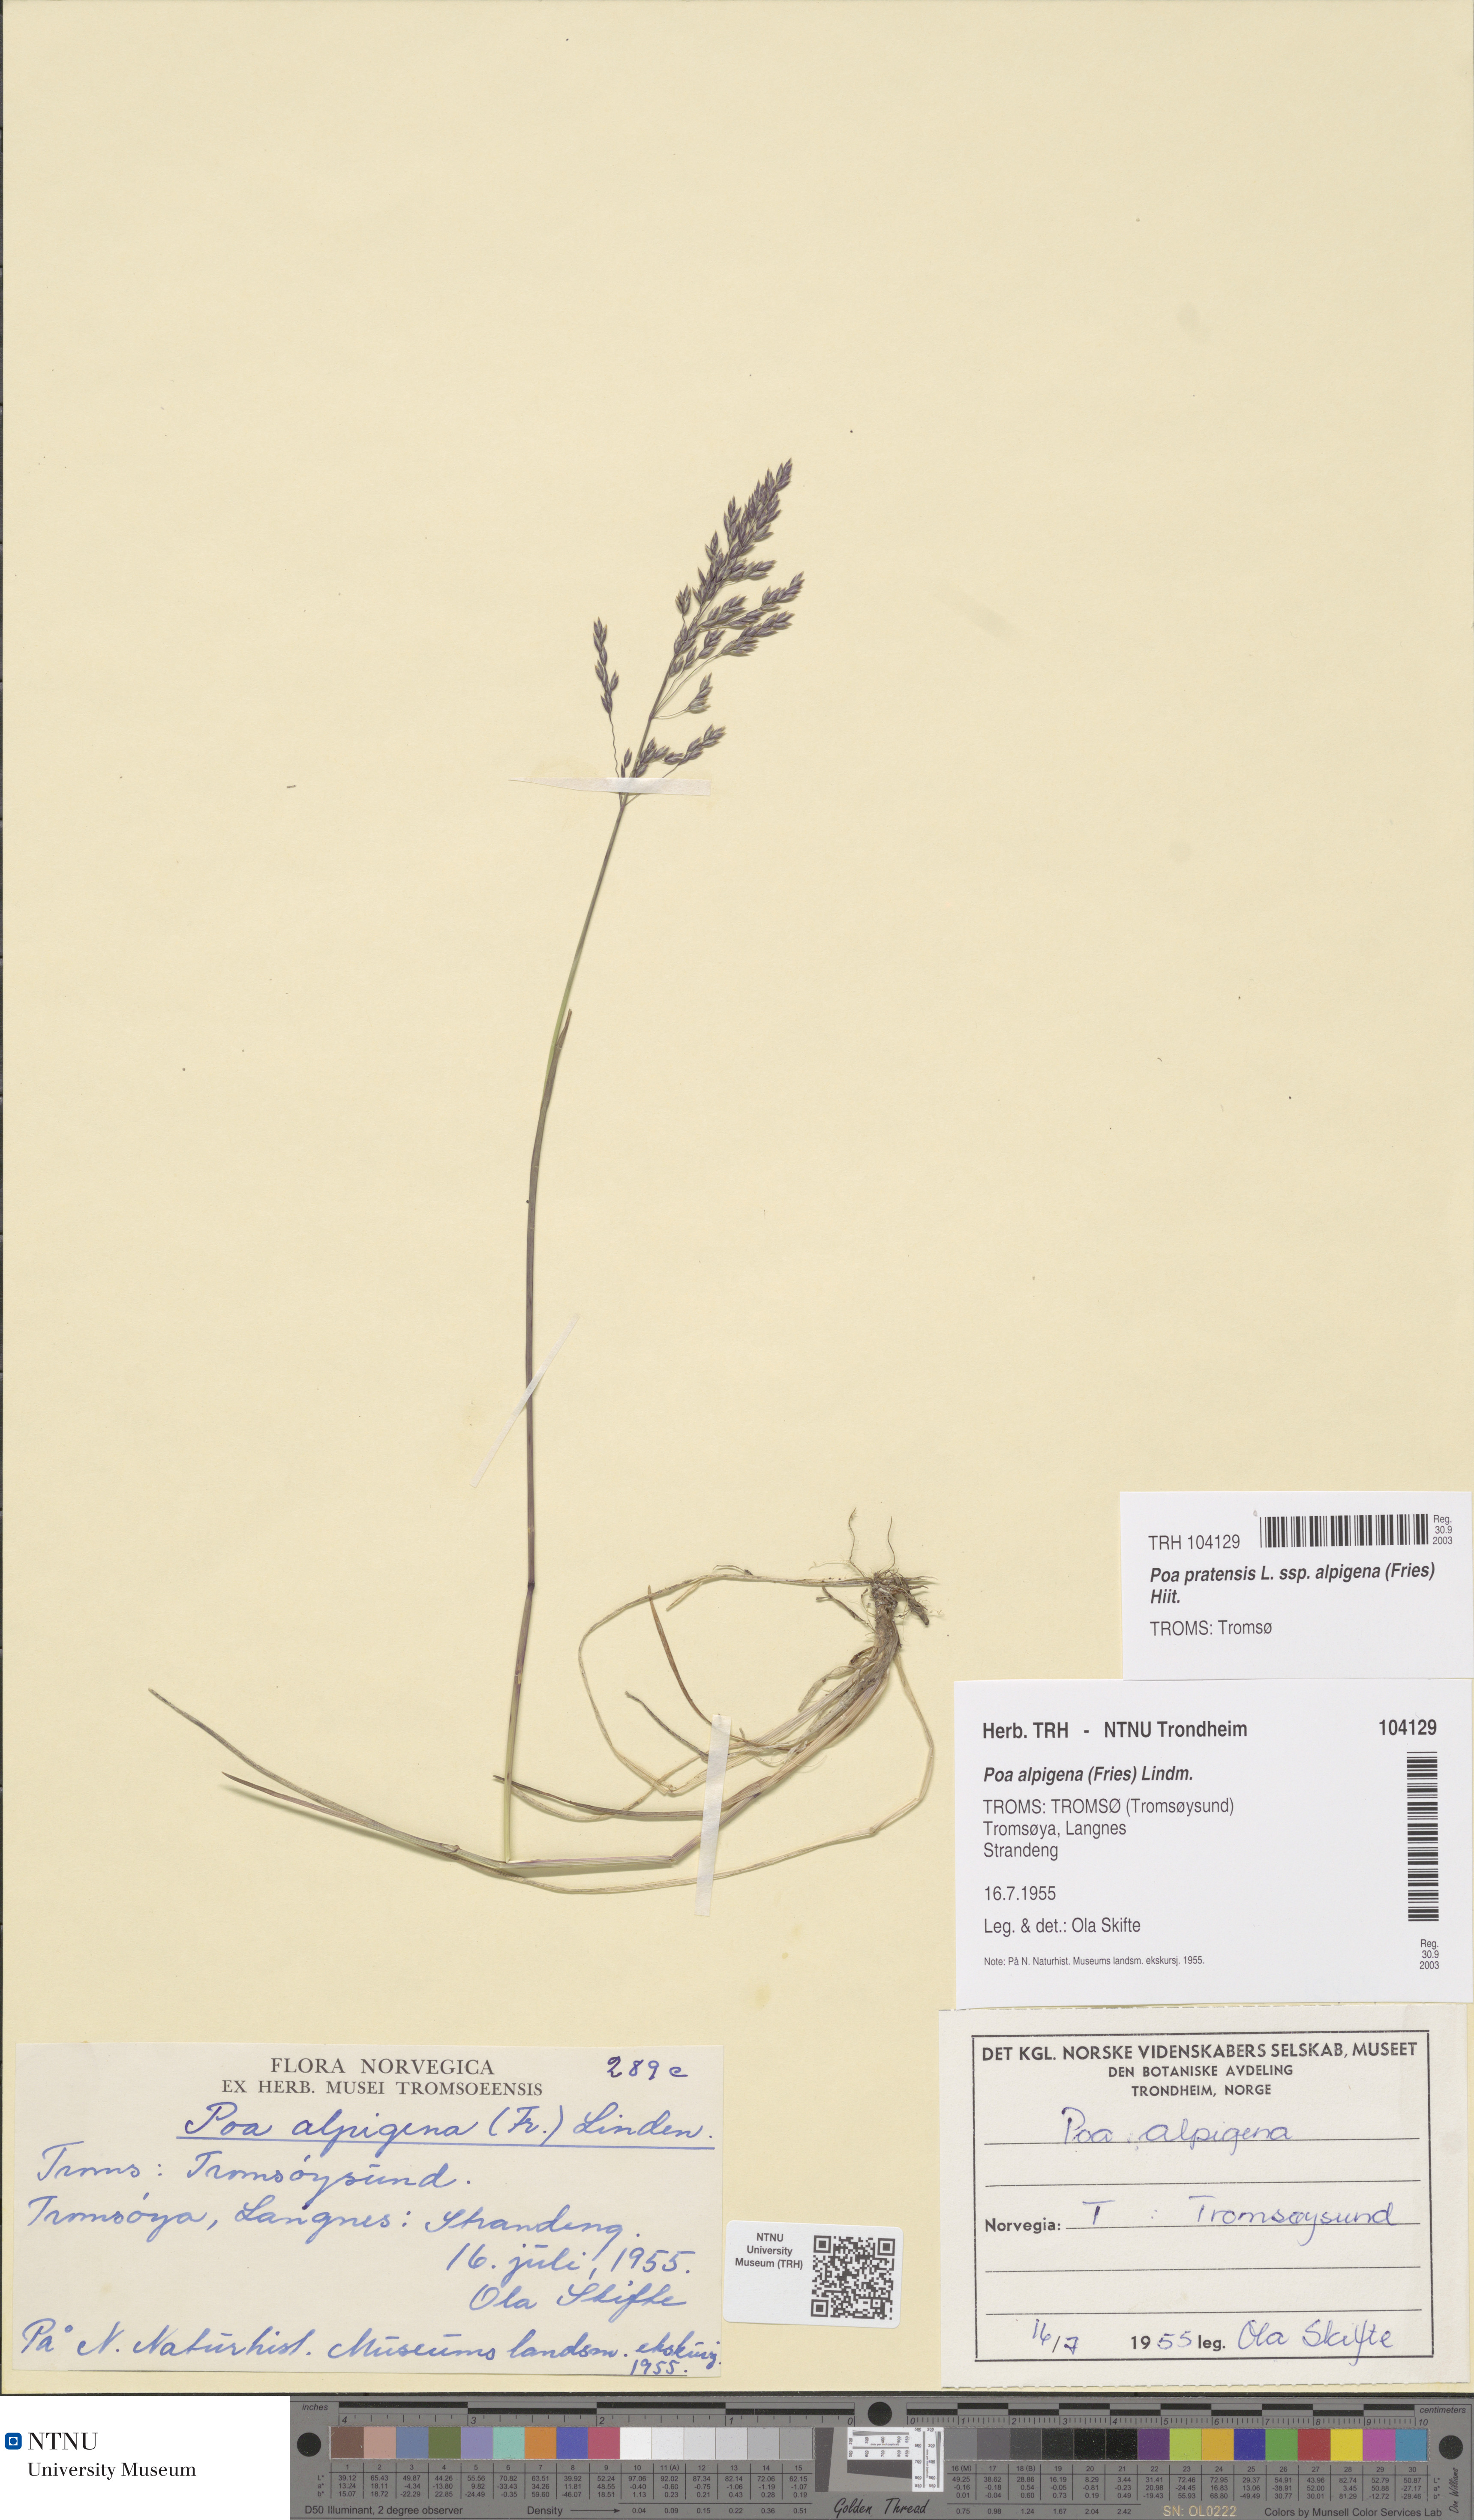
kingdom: Plantae
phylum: Tracheophyta
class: Liliopsida
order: Poales
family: Poaceae
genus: Poa
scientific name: Poa alpigena
